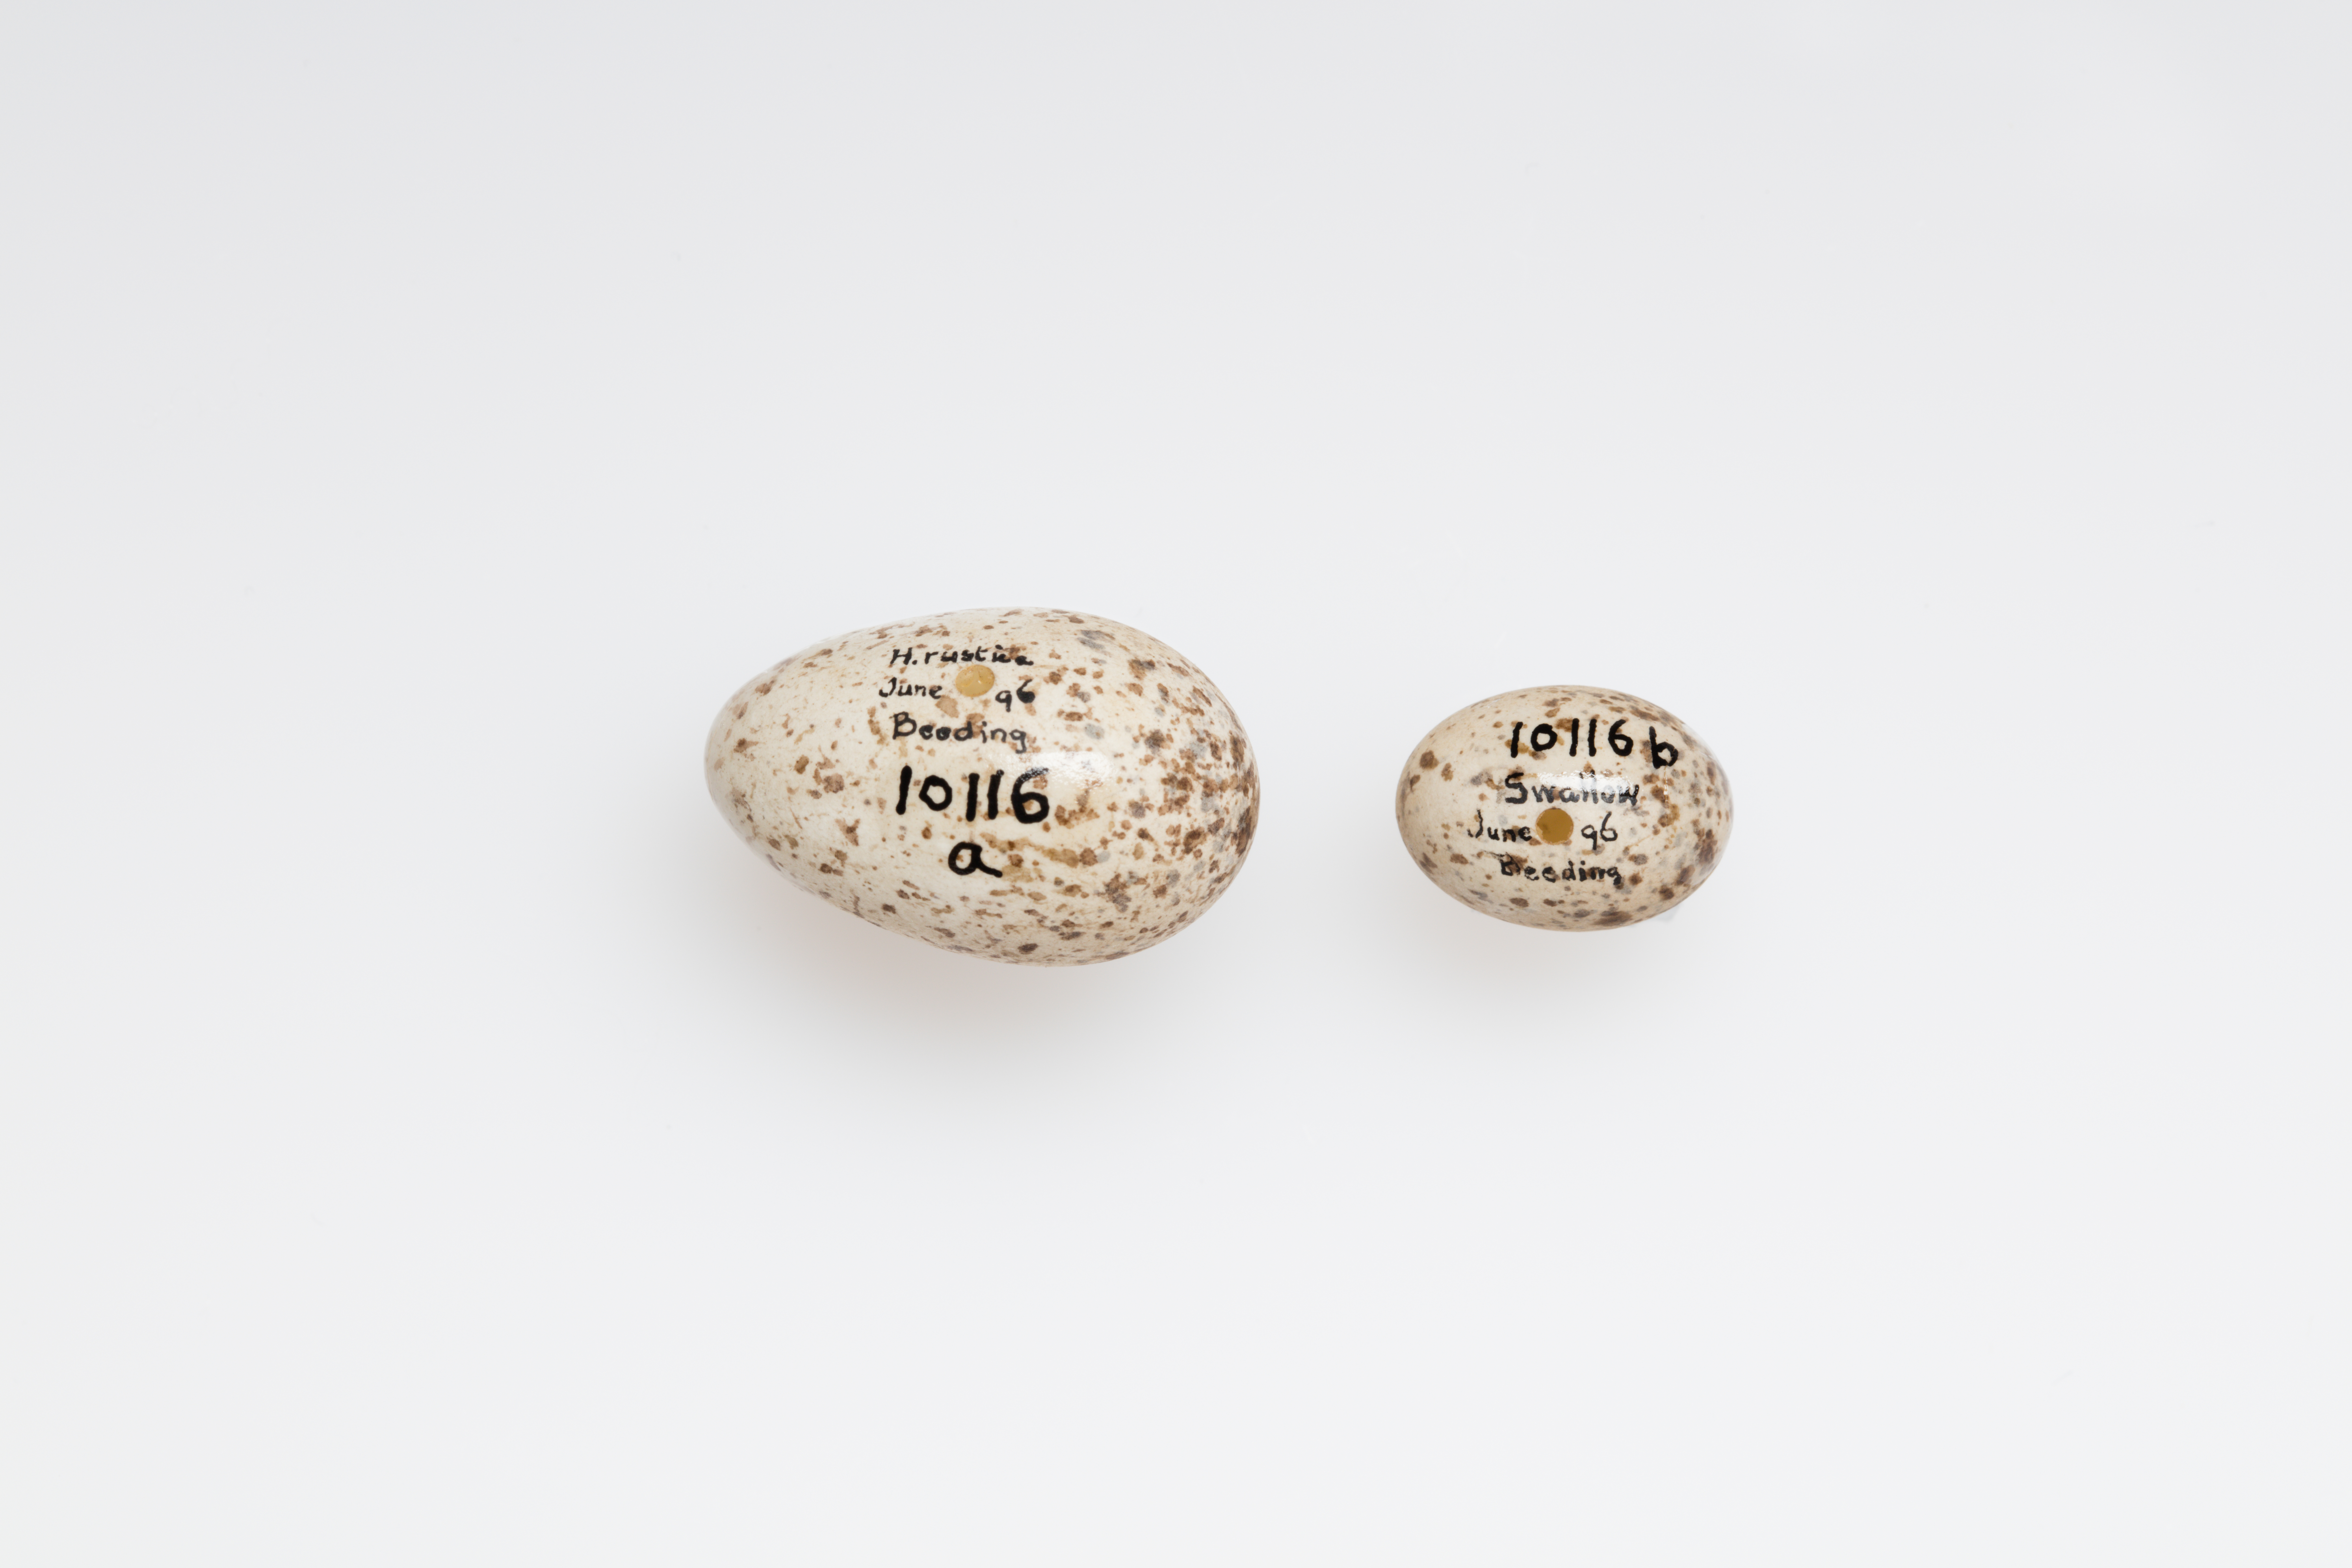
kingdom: Animalia
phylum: Chordata
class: Aves
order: Passeriformes
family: Hirundinidae
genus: Hirundo
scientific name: Hirundo rustica
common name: Barn swallow
